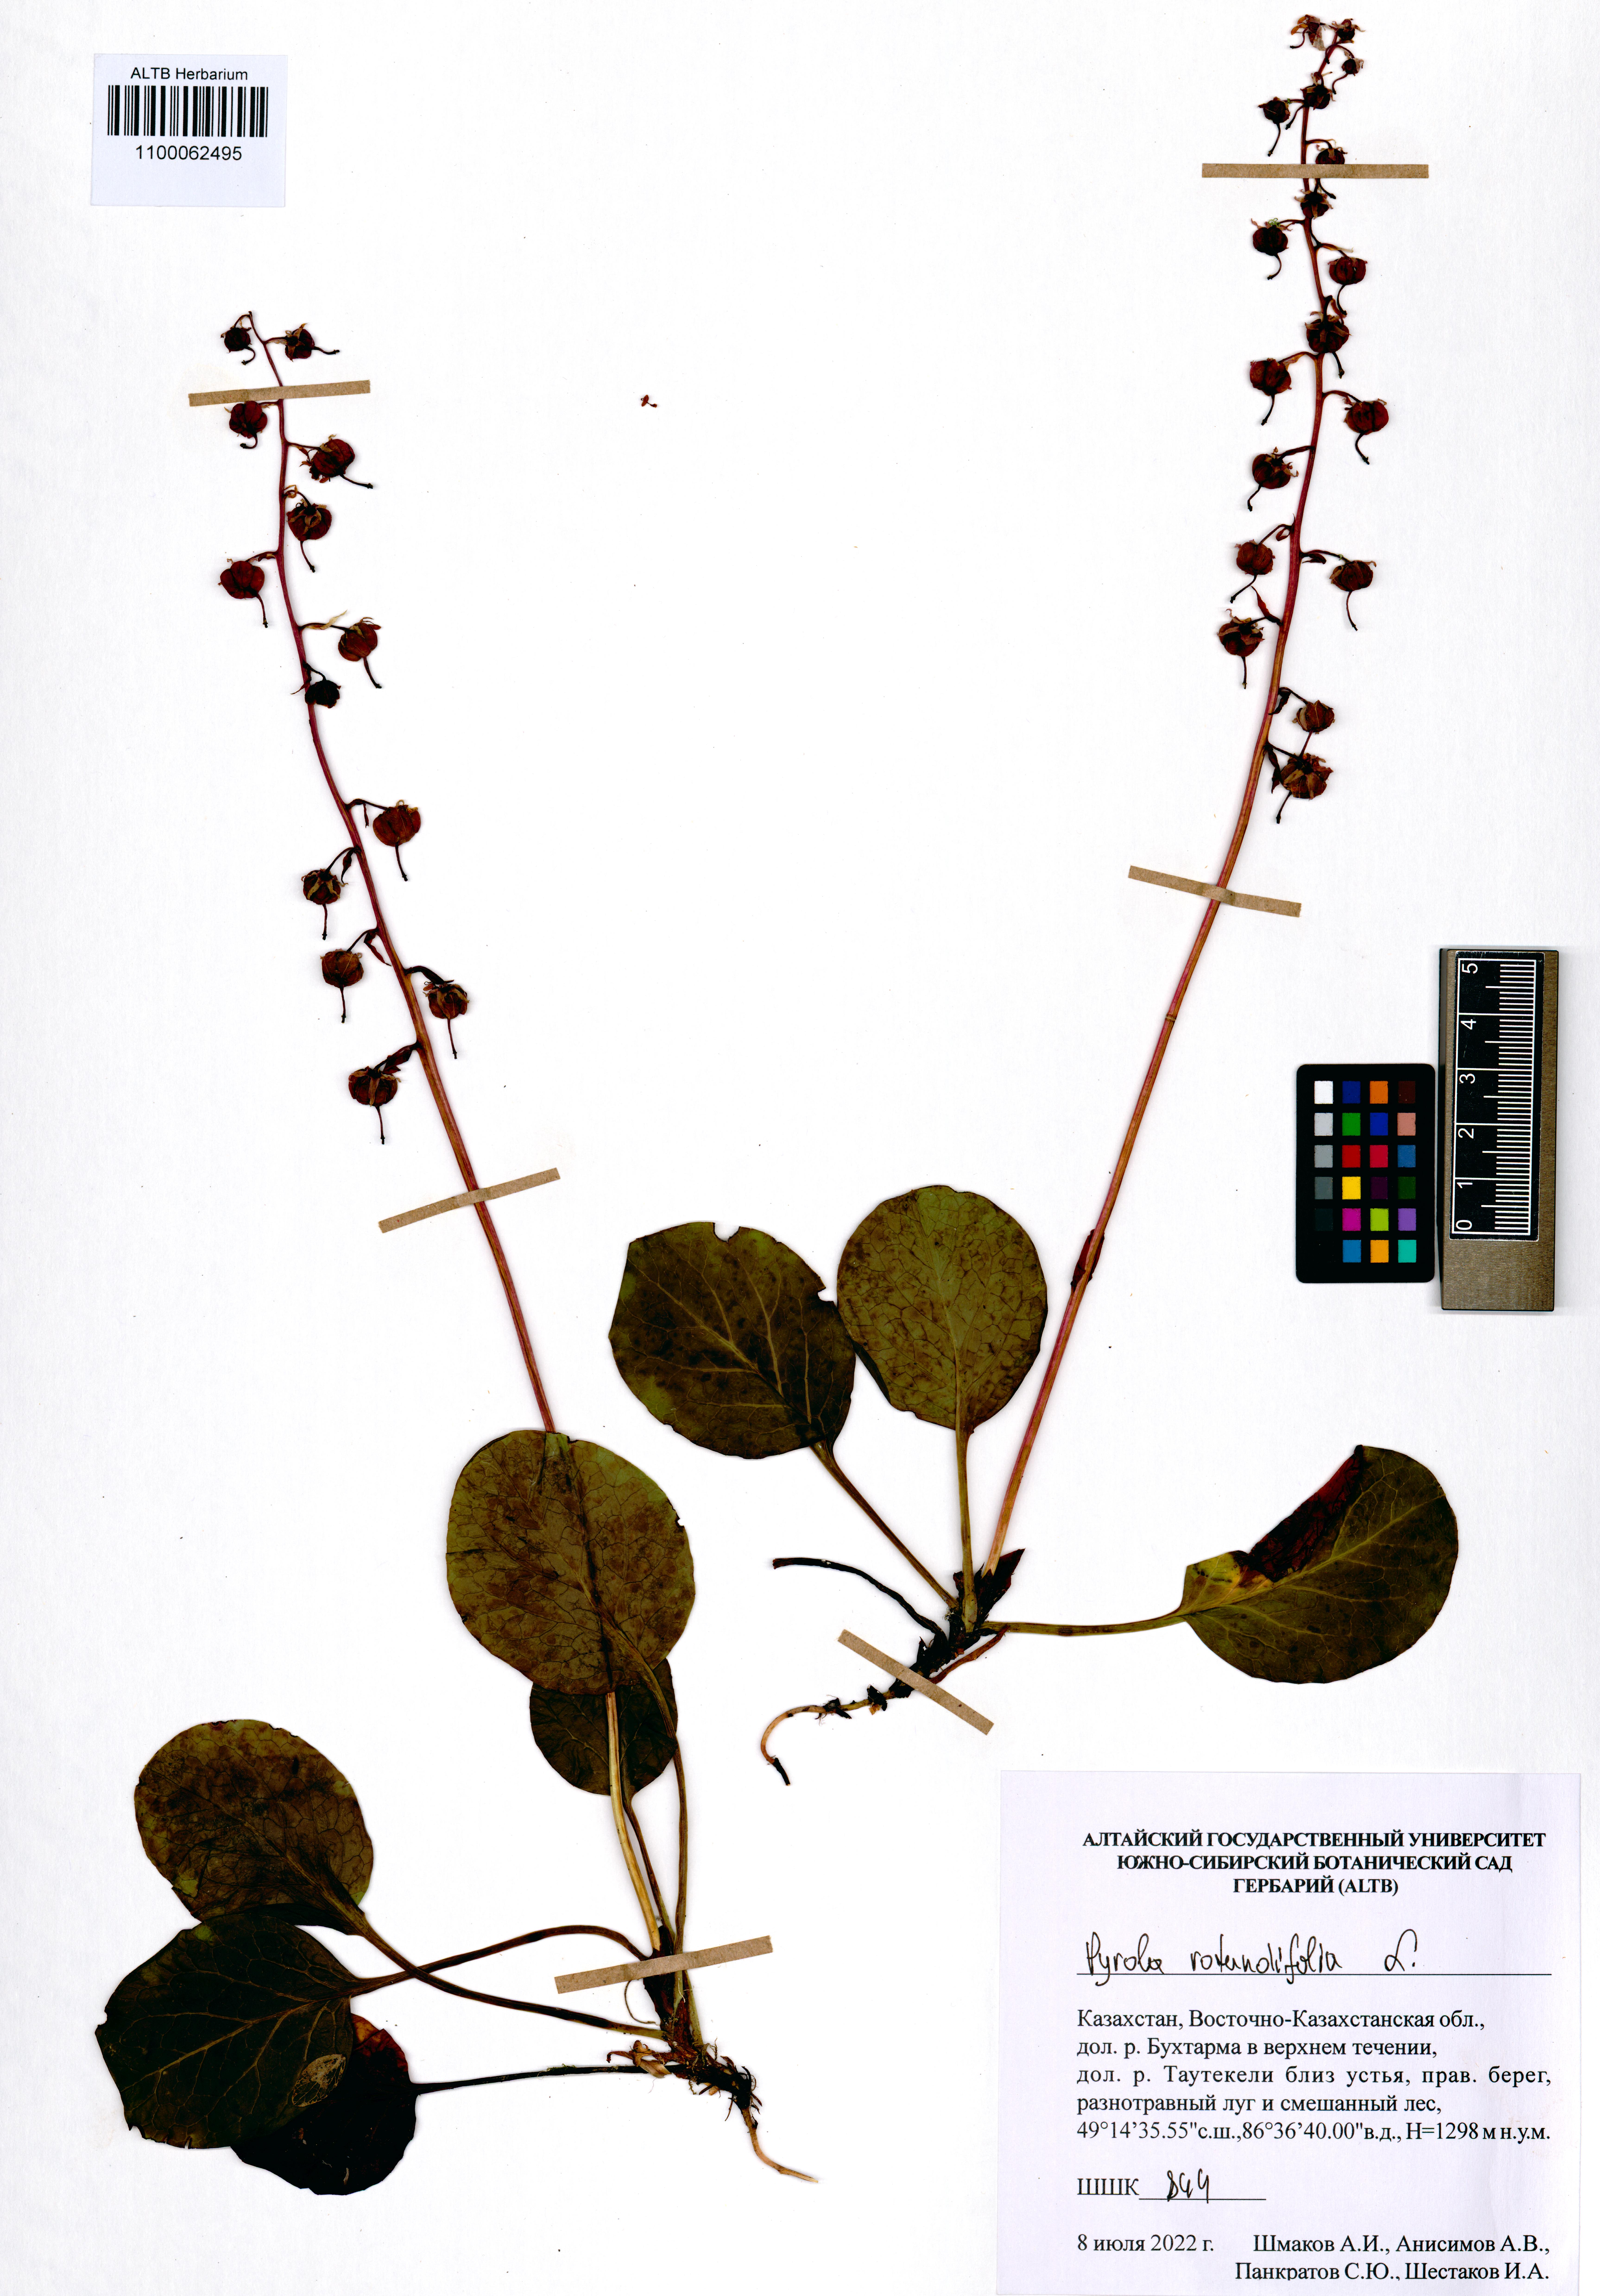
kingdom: Plantae
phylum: Tracheophyta
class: Magnoliopsida
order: Ericales
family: Ericaceae
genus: Pyrola
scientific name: Pyrola rotundifolia
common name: Round-leaved wintergreen
